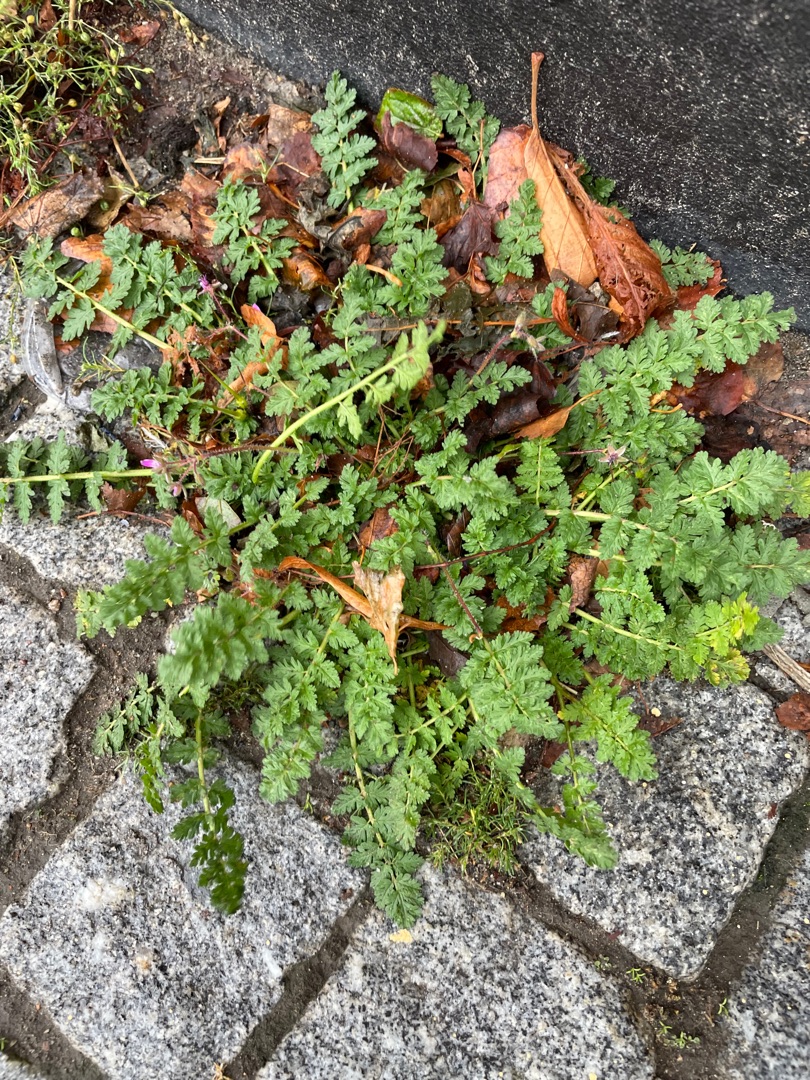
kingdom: Plantae
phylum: Tracheophyta
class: Magnoliopsida
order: Geraniales
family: Geraniaceae
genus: Erodium
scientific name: Erodium cicutarium
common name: Hejrenæb
